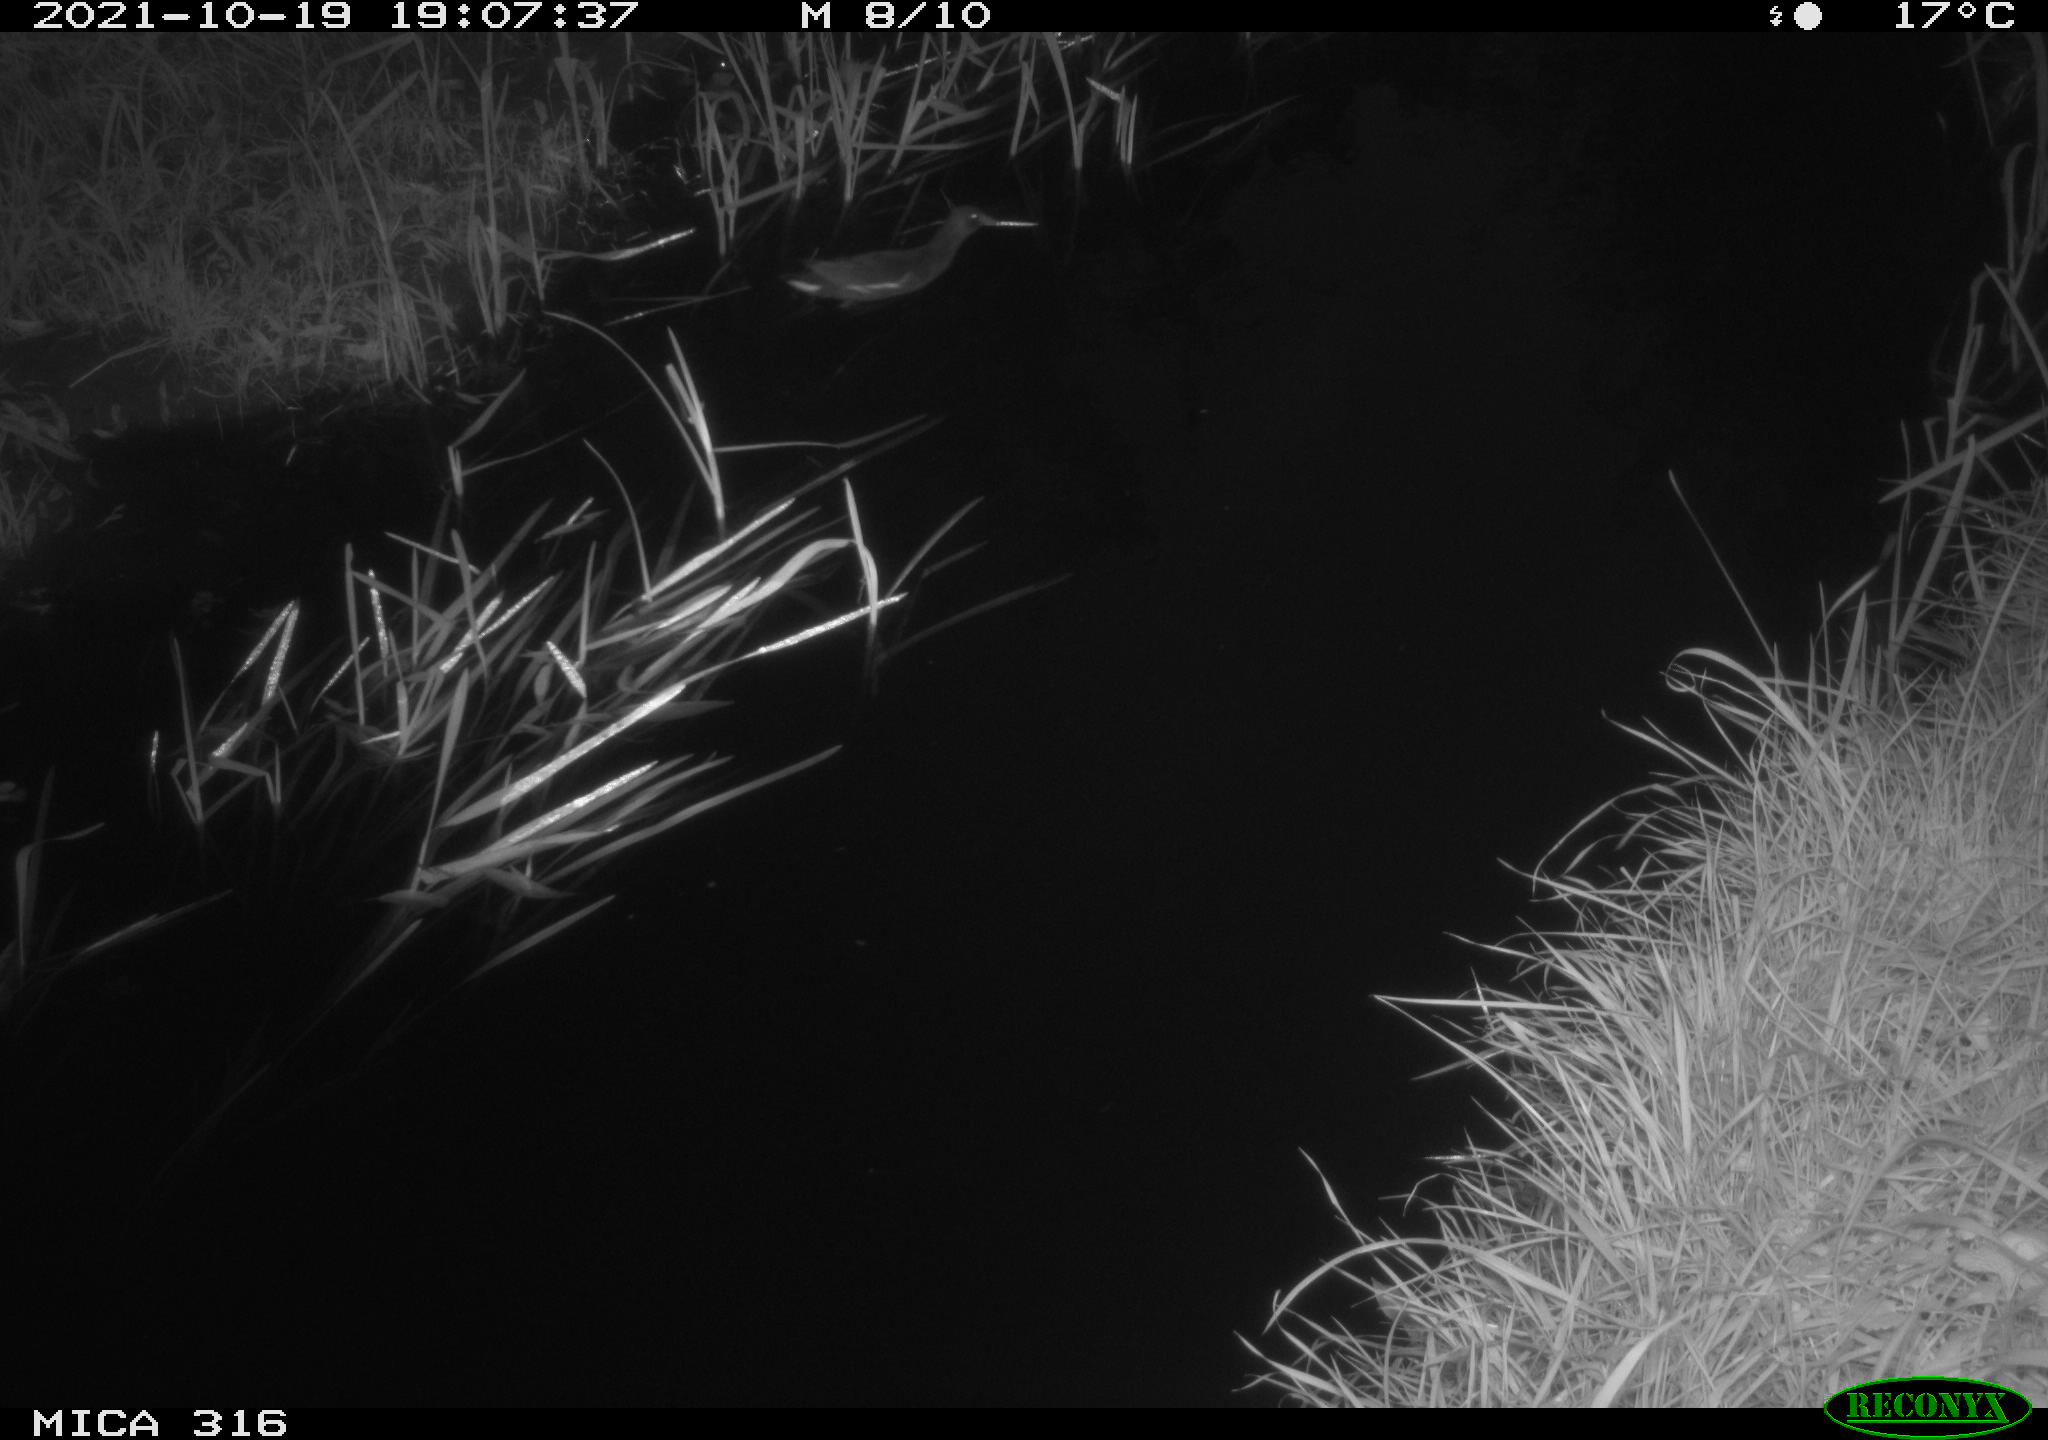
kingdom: Animalia
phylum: Chordata
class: Aves
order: Gruiformes
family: Rallidae
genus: Gallinula
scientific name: Gallinula chloropus
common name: Common moorhen
